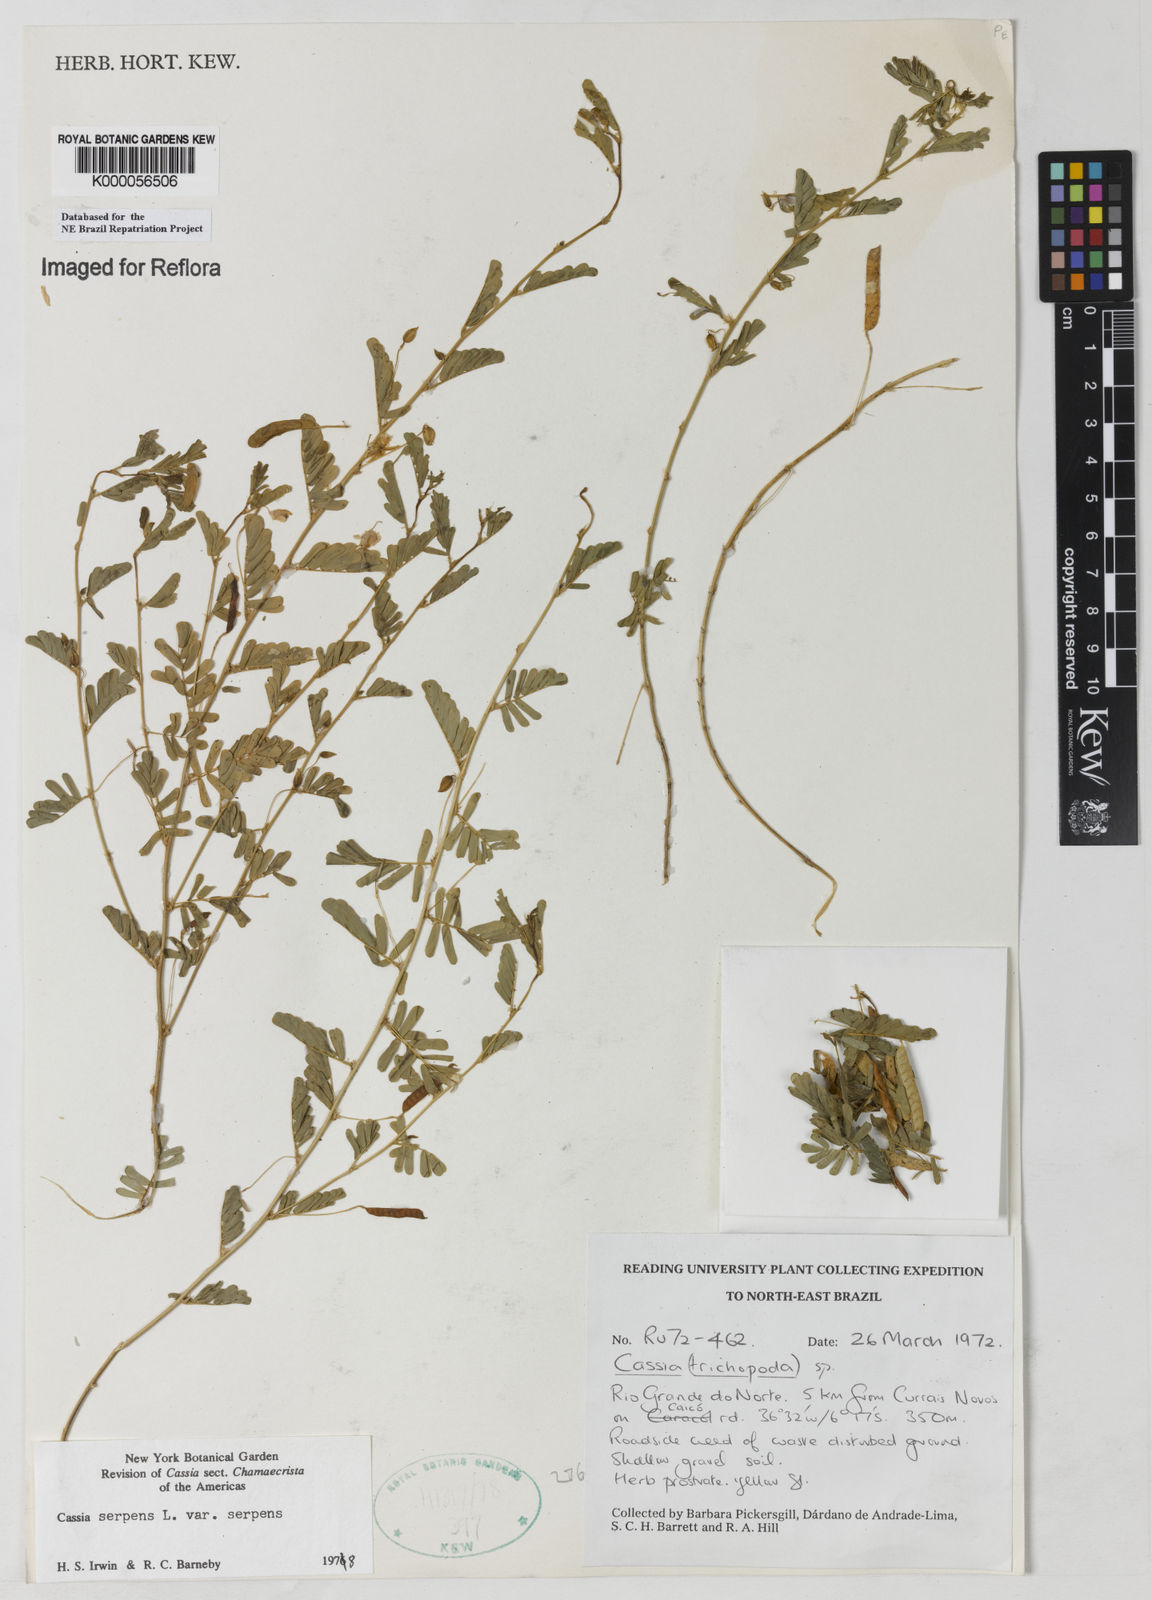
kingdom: Plantae
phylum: Tracheophyta
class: Magnoliopsida
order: Fabales
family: Fabaceae
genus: Chamaecrista
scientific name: Chamaecrista serpens
